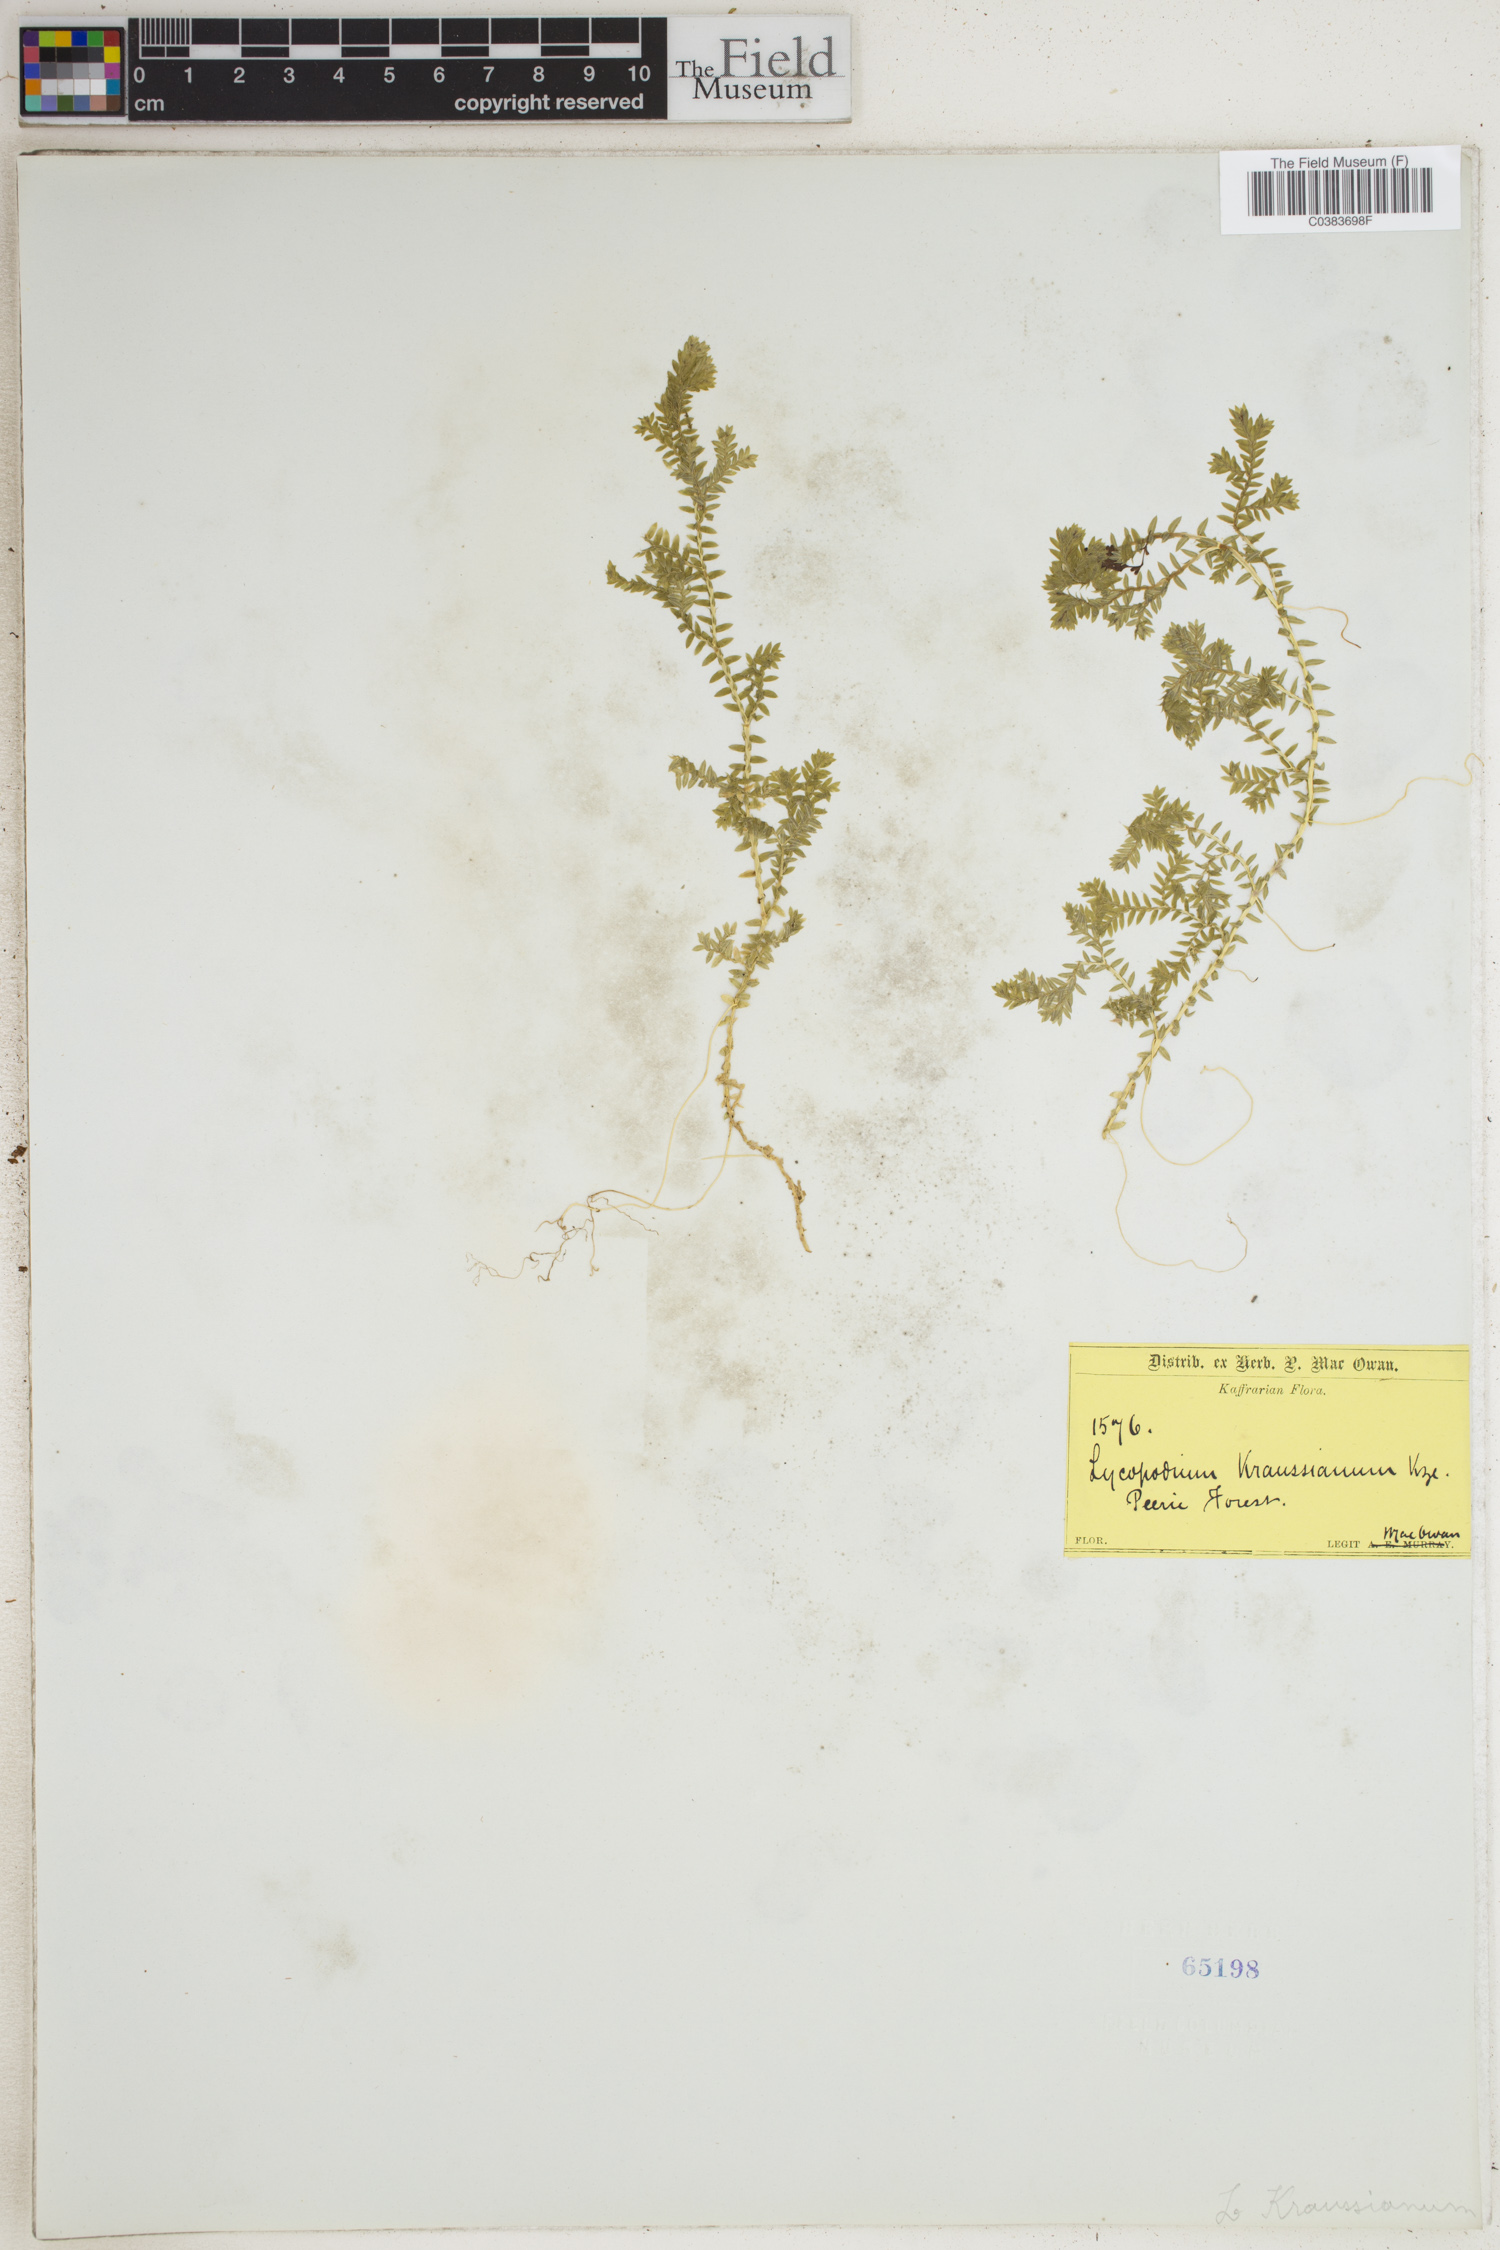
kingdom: Plantae
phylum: Tracheophyta
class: Lycopodiopsida
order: Selaginellales
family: Selaginellaceae
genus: Selaginella
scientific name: Selaginella kraussiana
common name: Krauss' spikemoss
